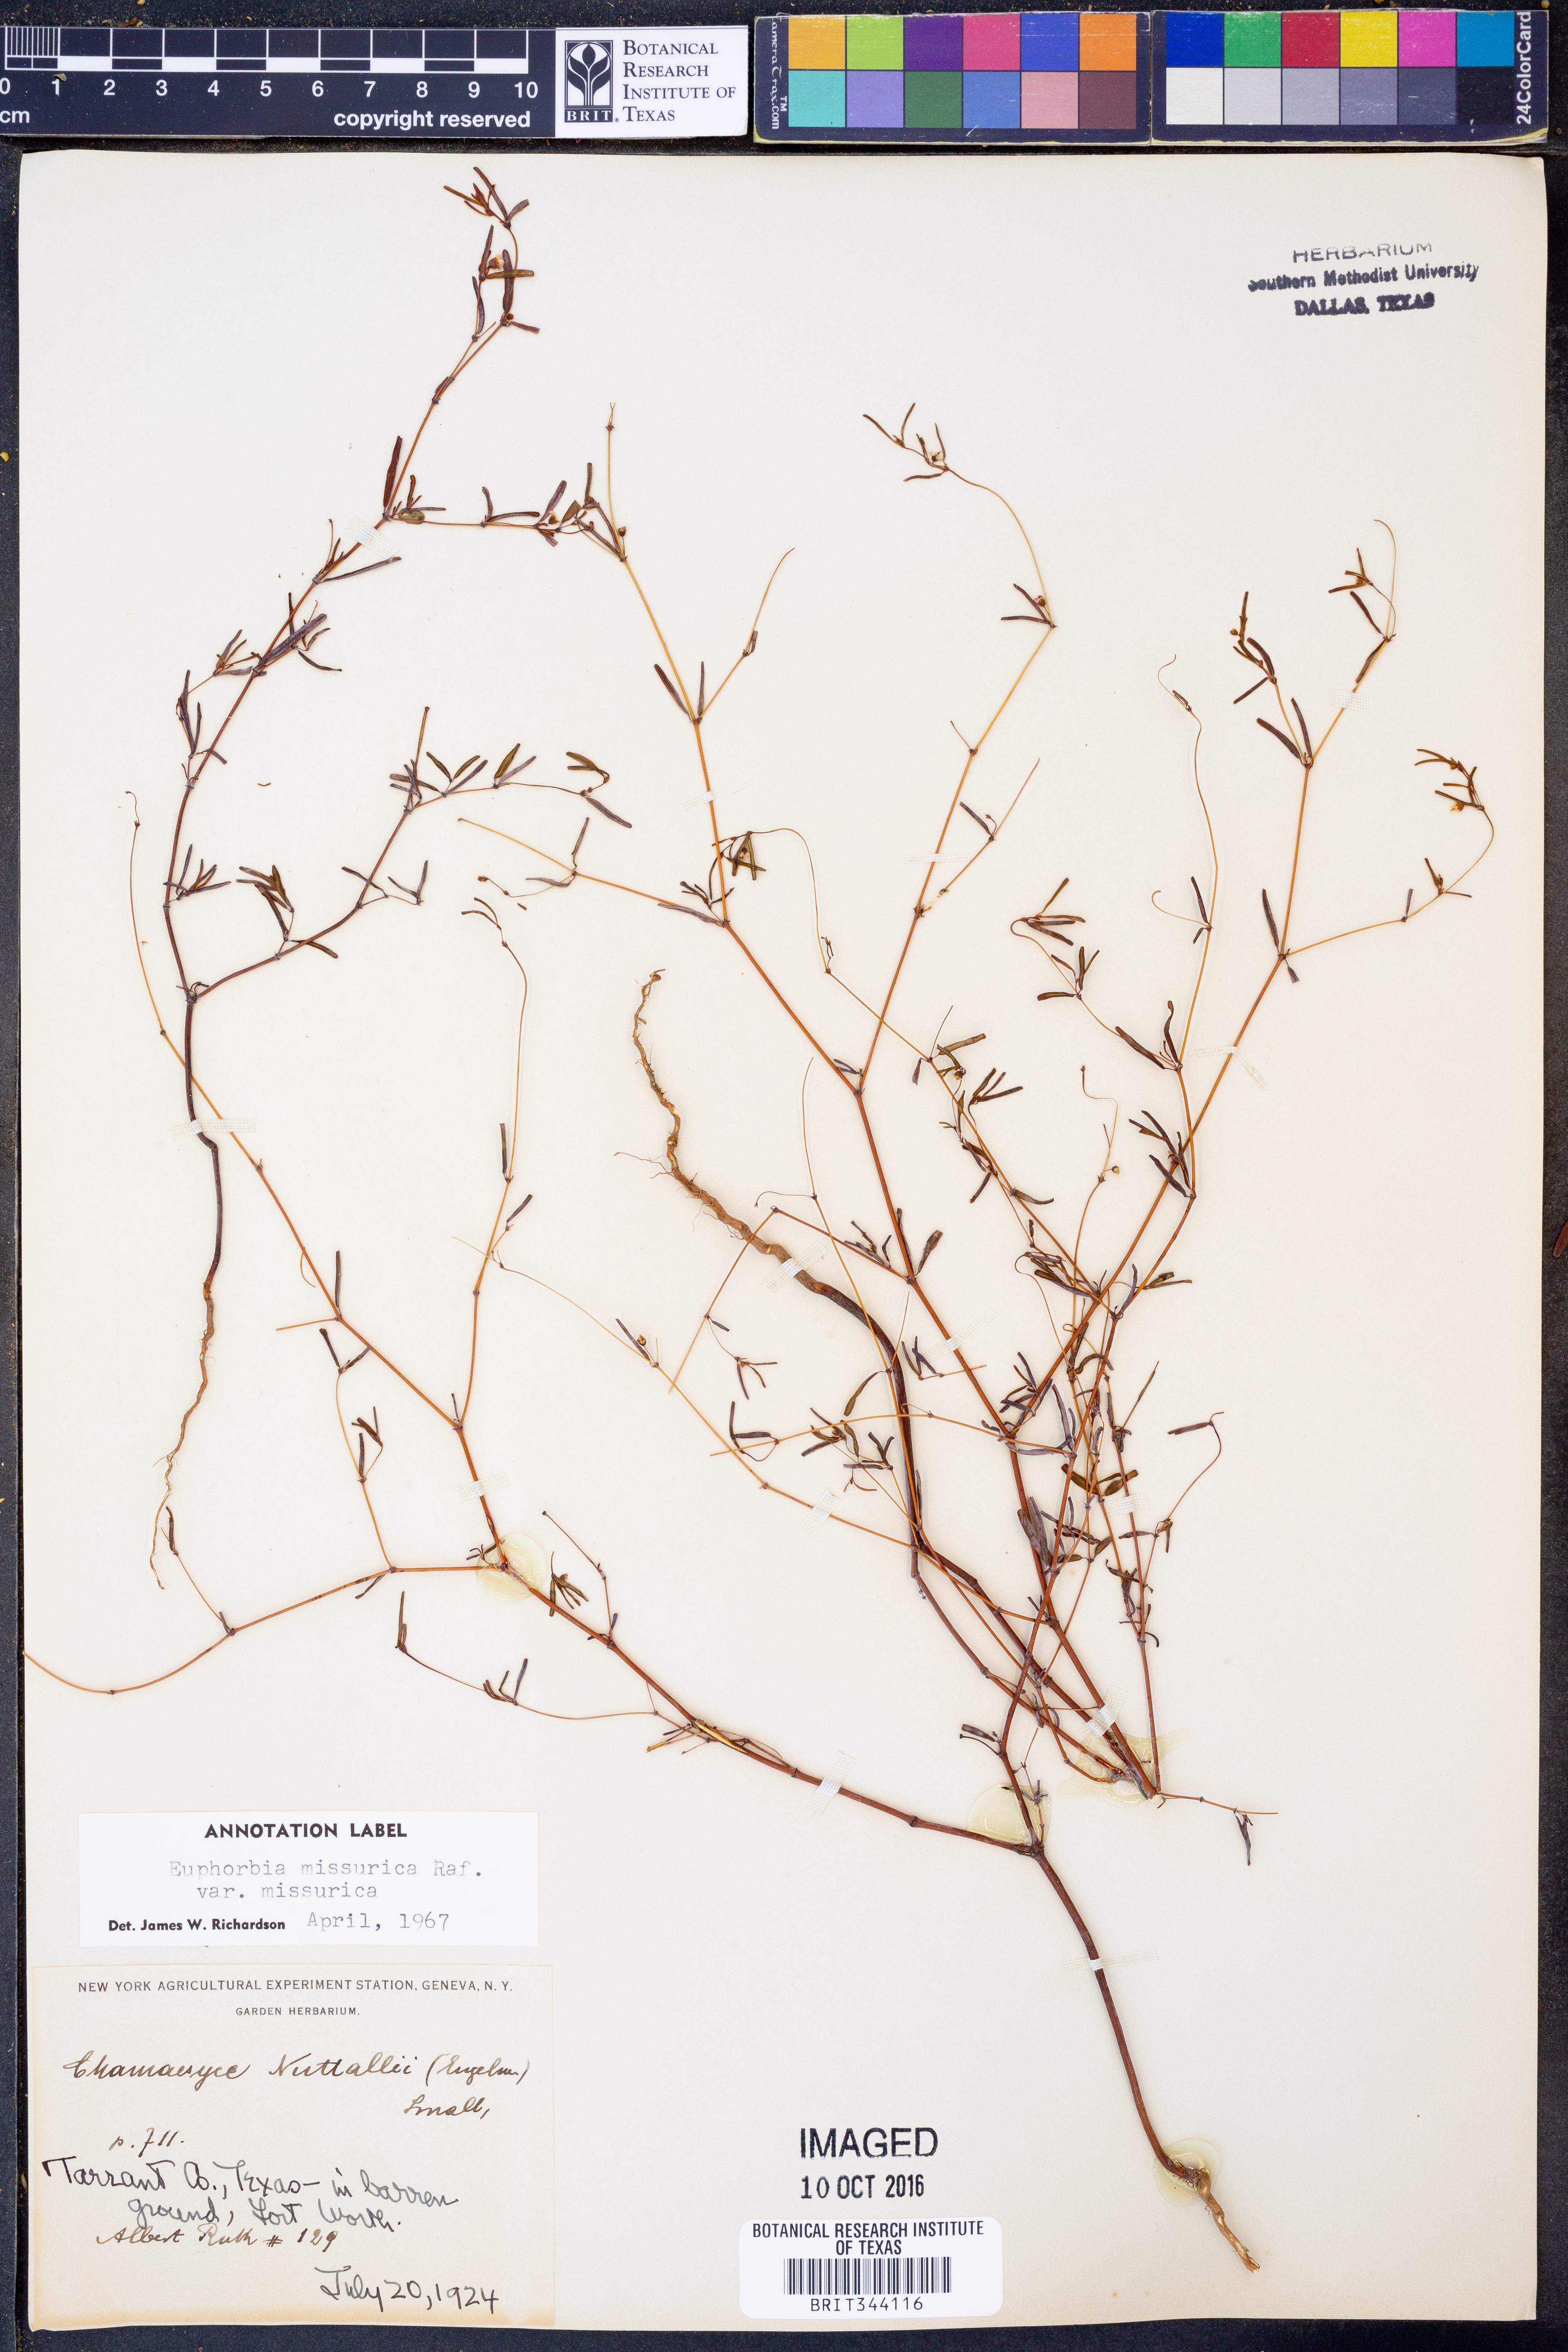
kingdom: Plantae
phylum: Tracheophyta
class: Magnoliopsida
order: Malpighiales
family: Euphorbiaceae
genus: Euphorbia
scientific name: Euphorbia missurica
